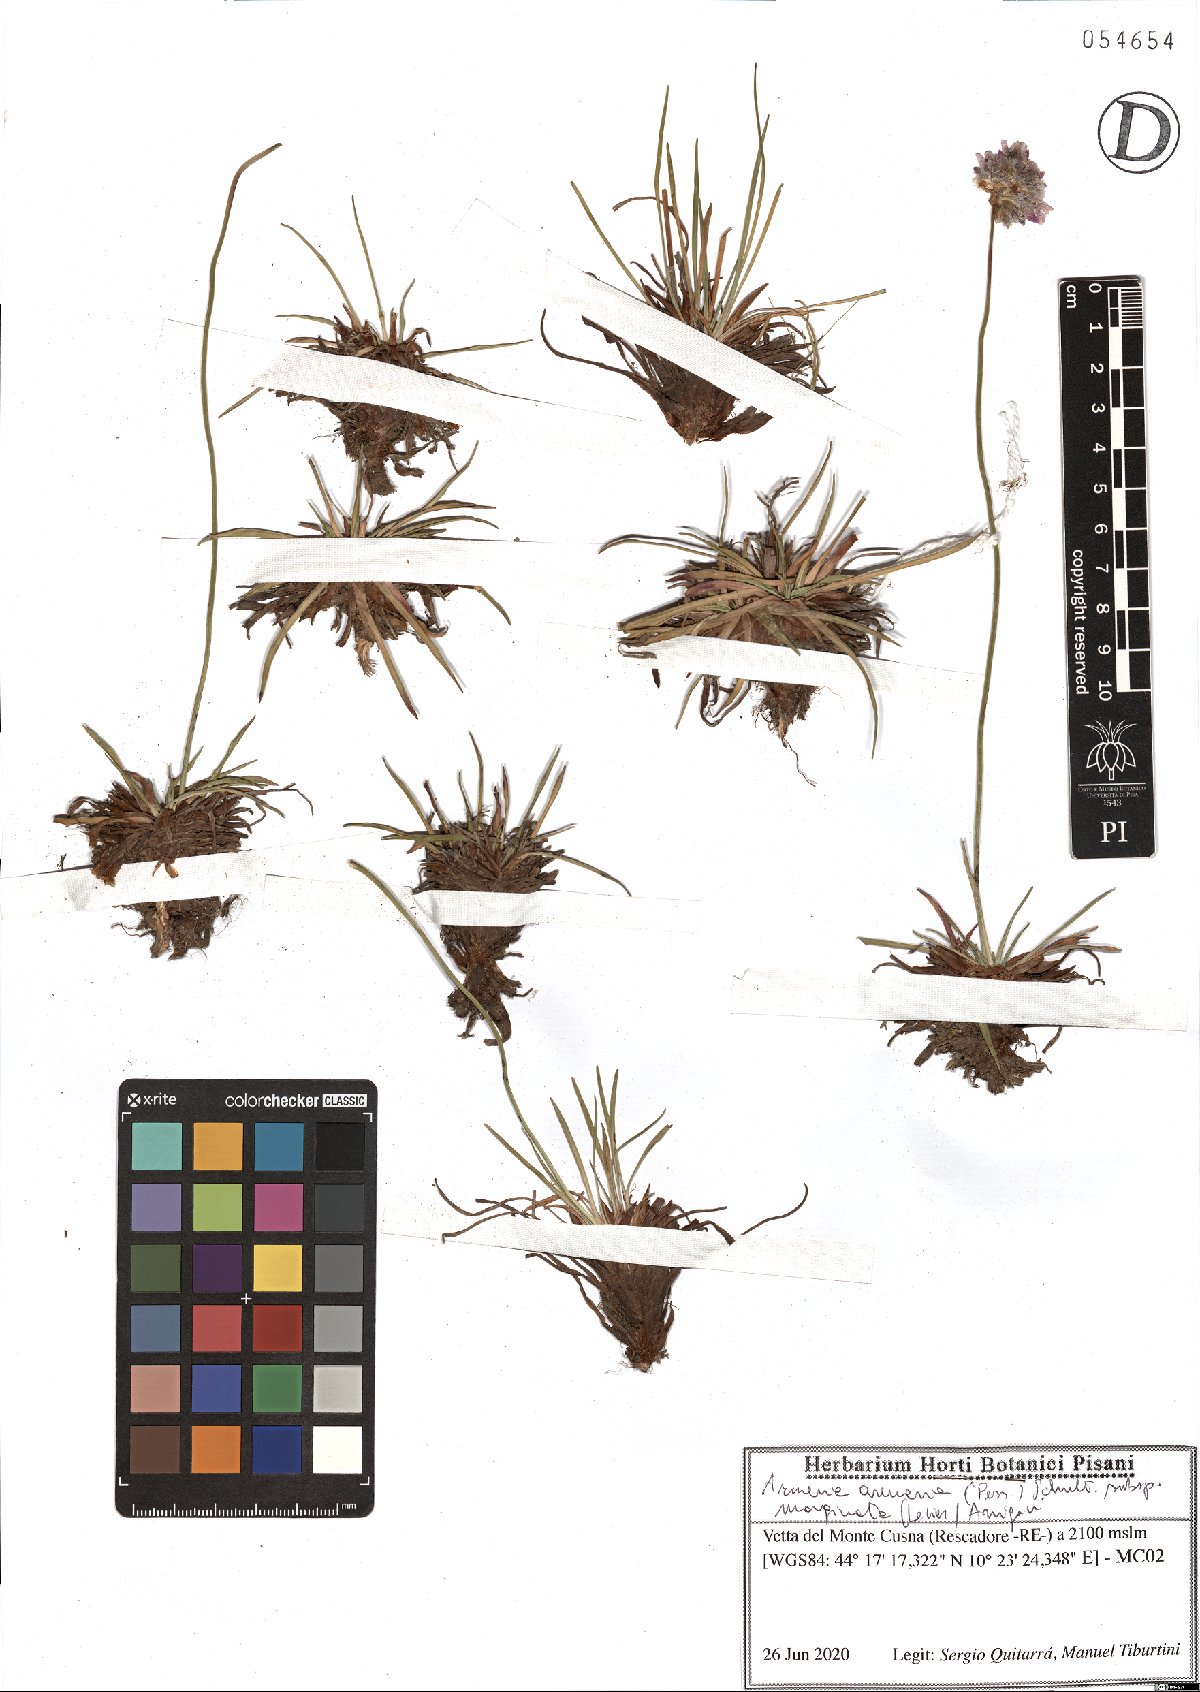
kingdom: Plantae
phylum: Tracheophyta
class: Magnoliopsida
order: Caryophyllales
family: Plumbaginaceae
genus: Armeria
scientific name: Armeria arenaria
